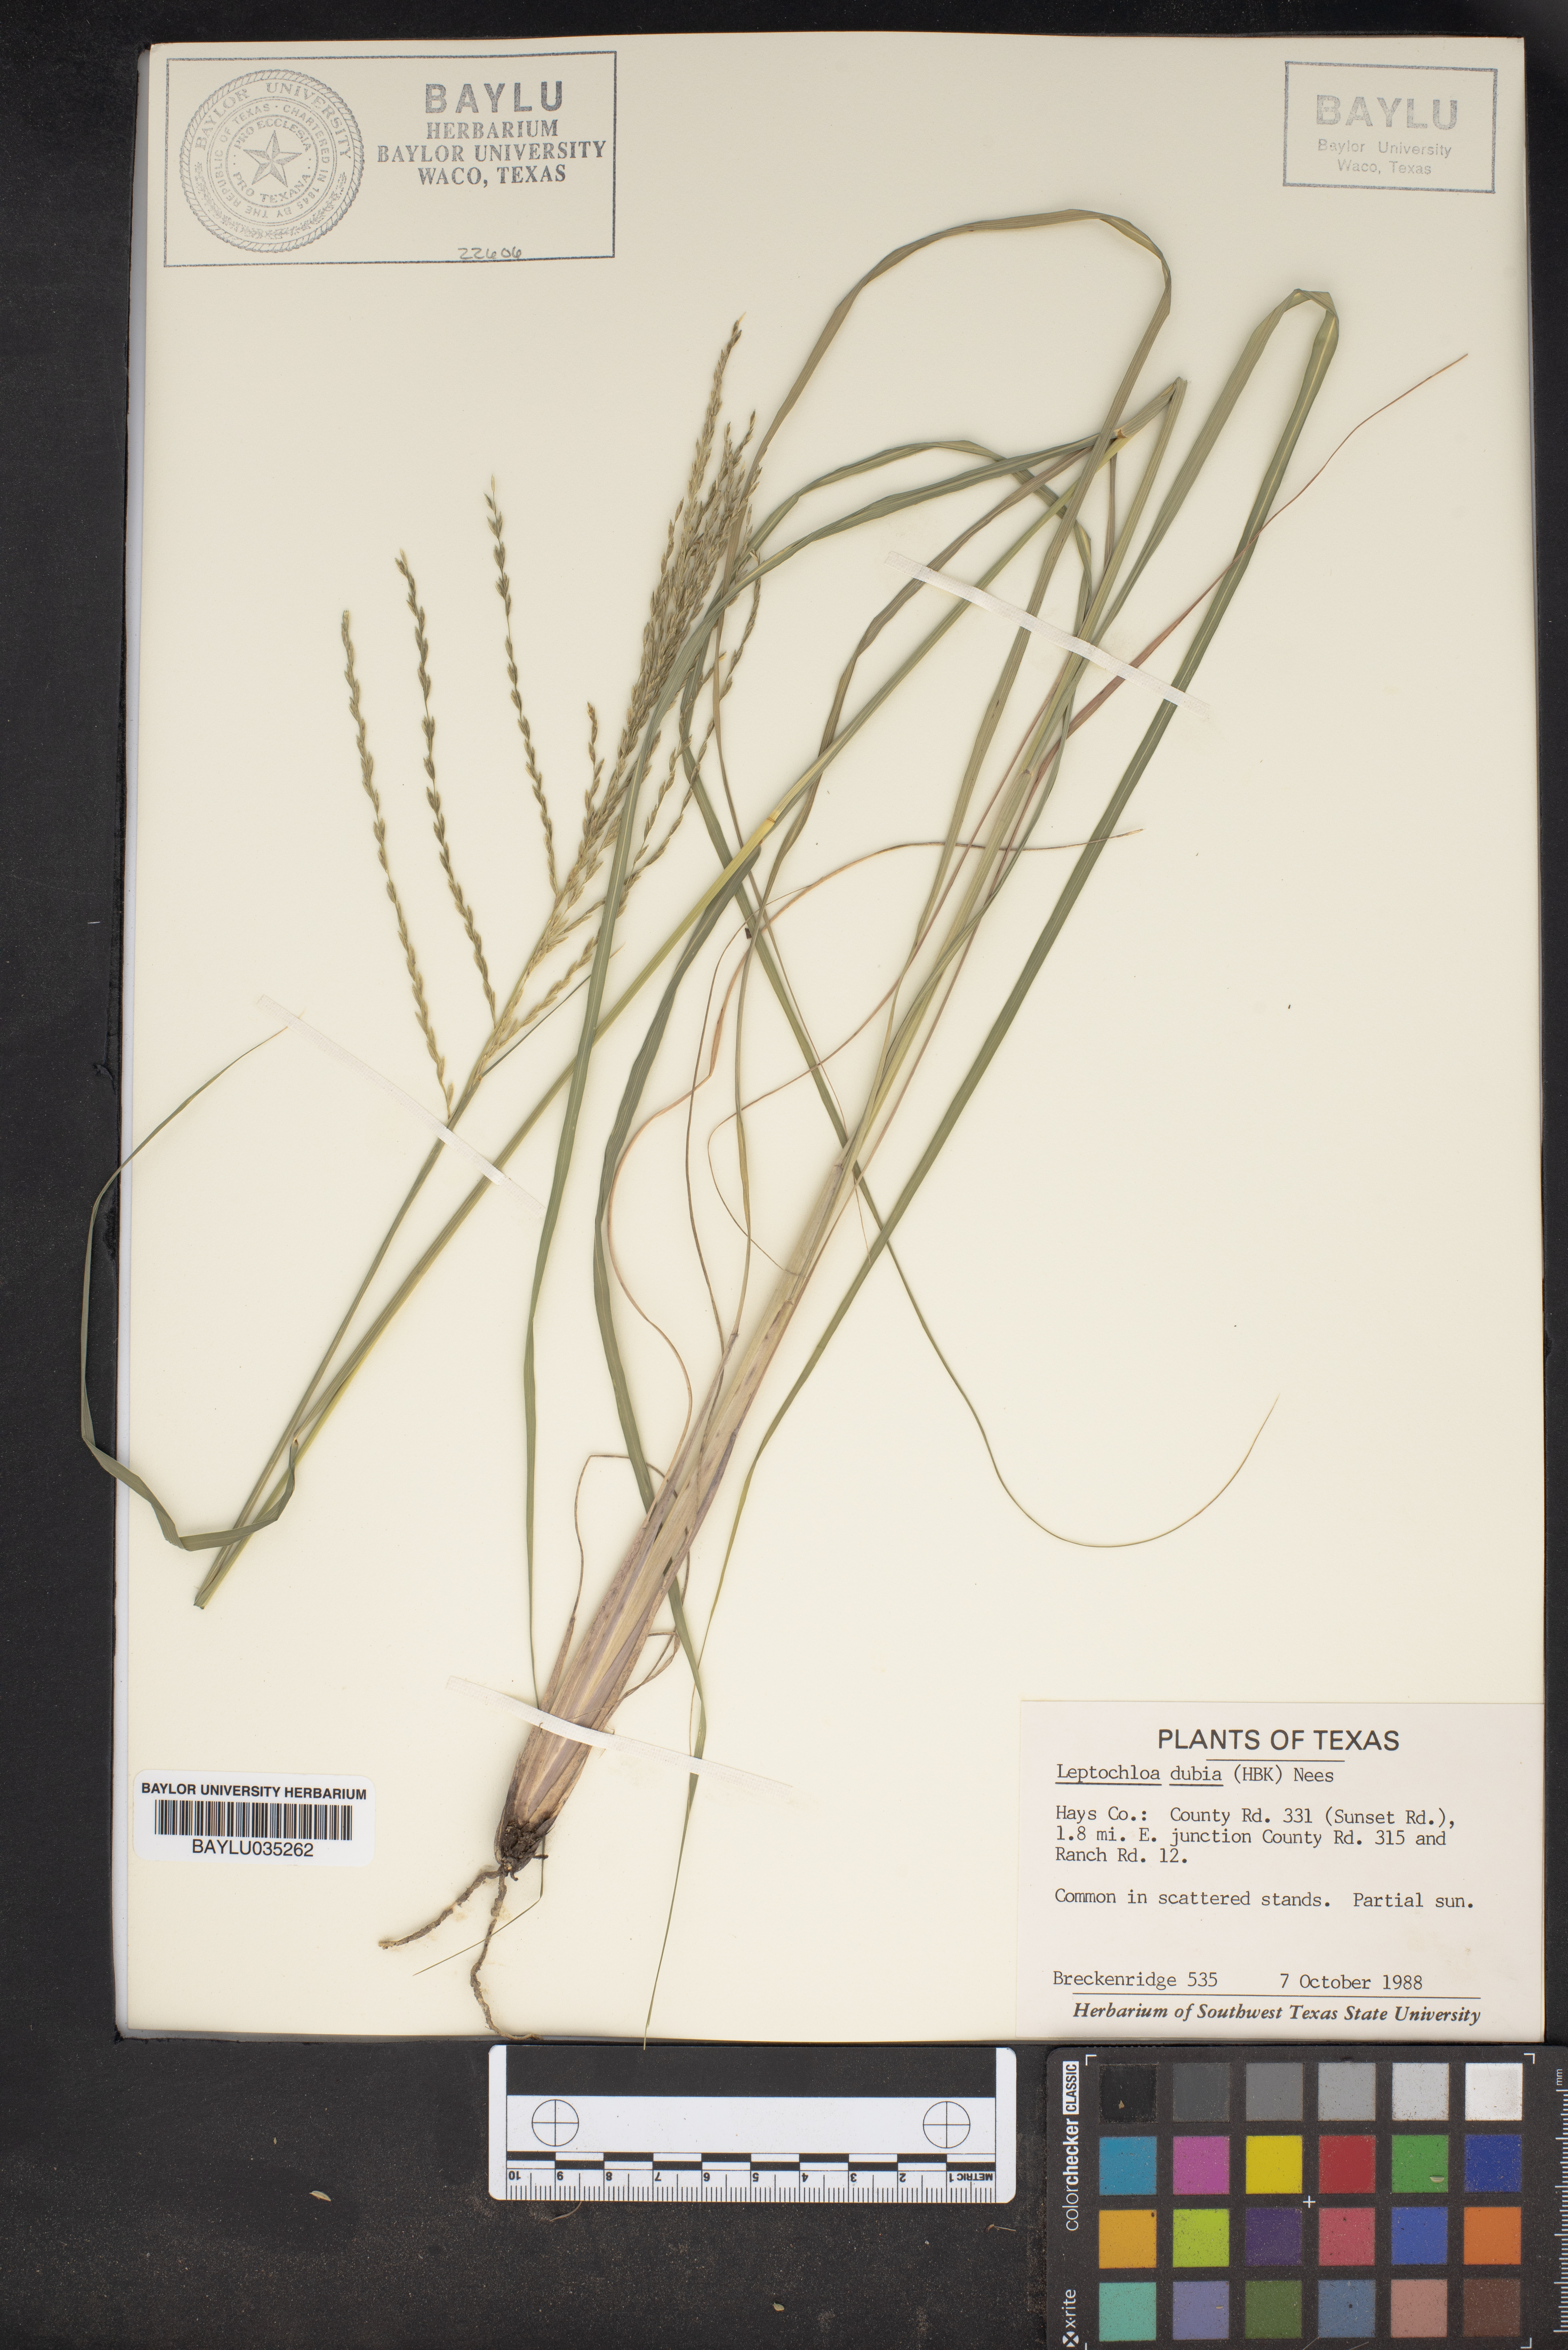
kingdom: Plantae
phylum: Tracheophyta
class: Liliopsida
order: Poales
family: Poaceae
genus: Disakisperma
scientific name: Disakisperma dubium
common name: Green sprangletop
